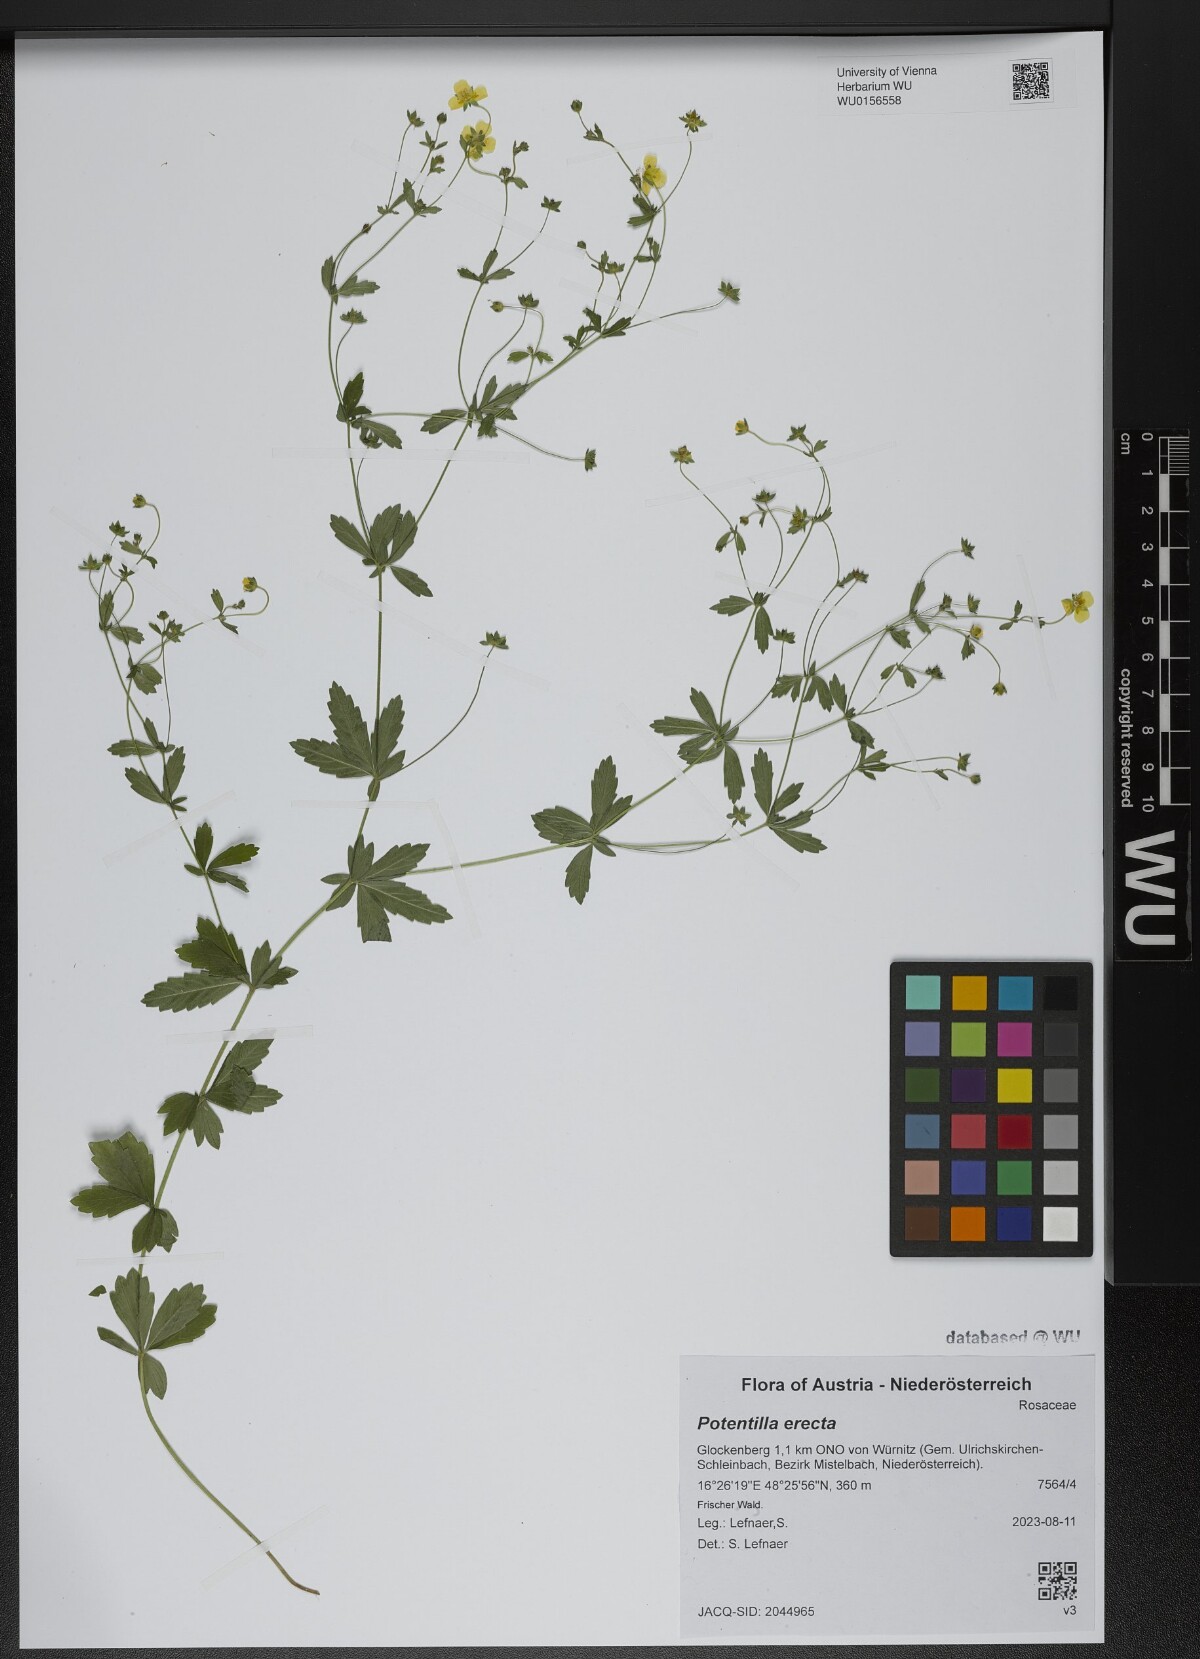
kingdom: Plantae
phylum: Tracheophyta
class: Magnoliopsida
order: Rosales
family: Rosaceae
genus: Potentilla
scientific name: Potentilla erecta
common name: Tormentil
